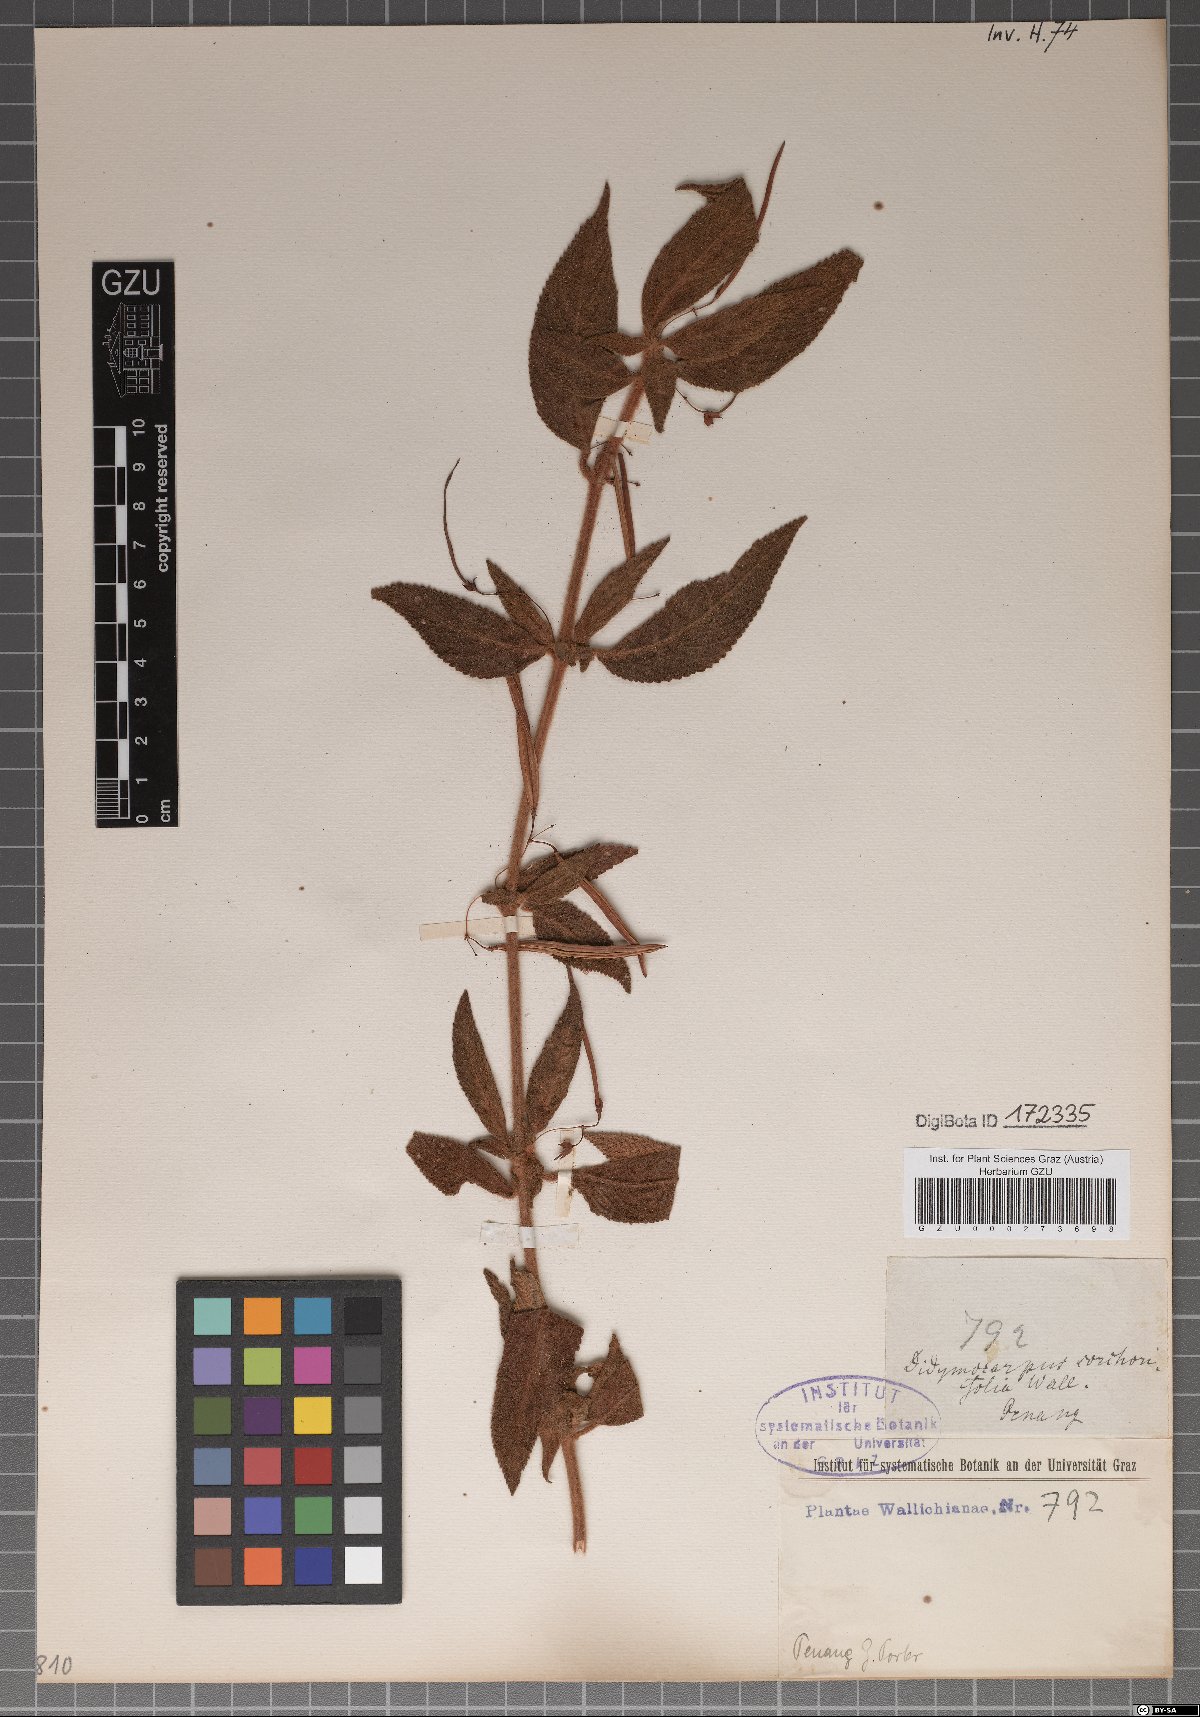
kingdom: Plantae
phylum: Tracheophyta
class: Magnoliopsida
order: Lamiales
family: Gesneriaceae
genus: Didymocarpus
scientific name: Didymocarpus corchorifolius
